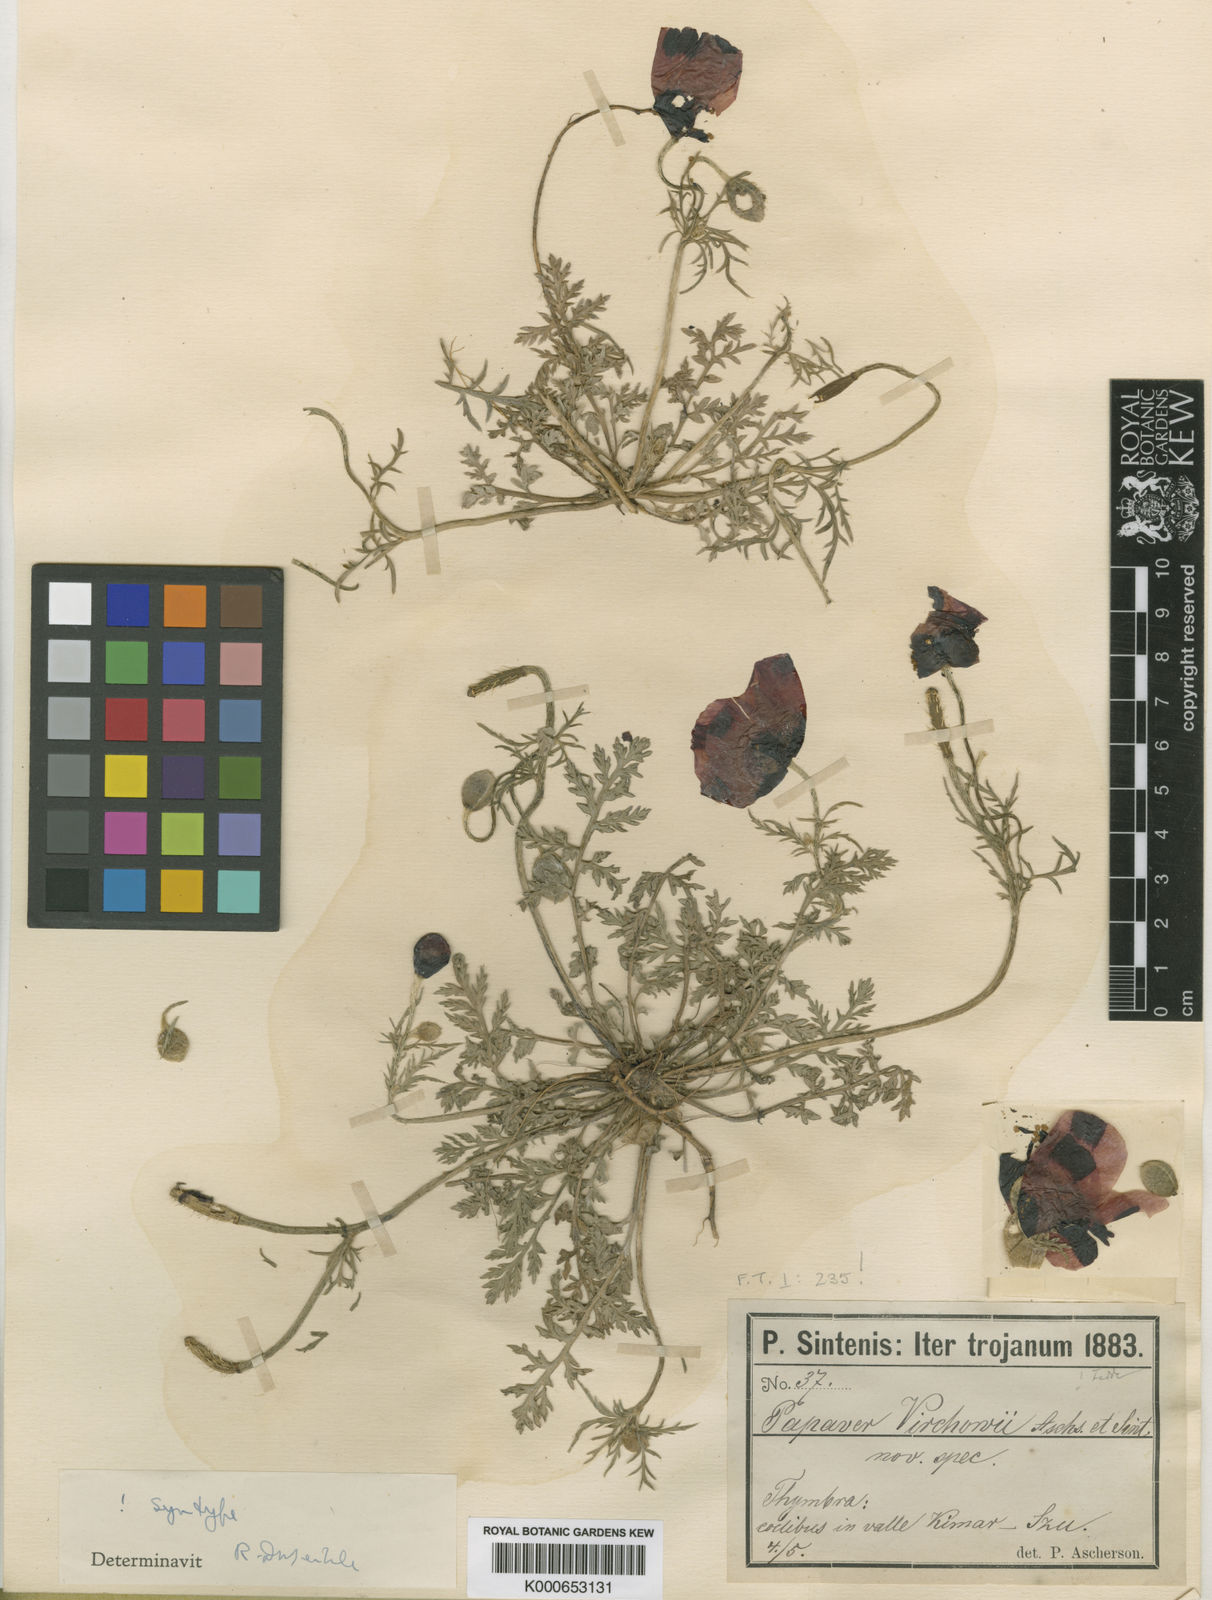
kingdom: Plantae
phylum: Tracheophyta
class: Magnoliopsida
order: Ranunculales
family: Papaveraceae
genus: Roemeria
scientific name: Roemeria virchowii
